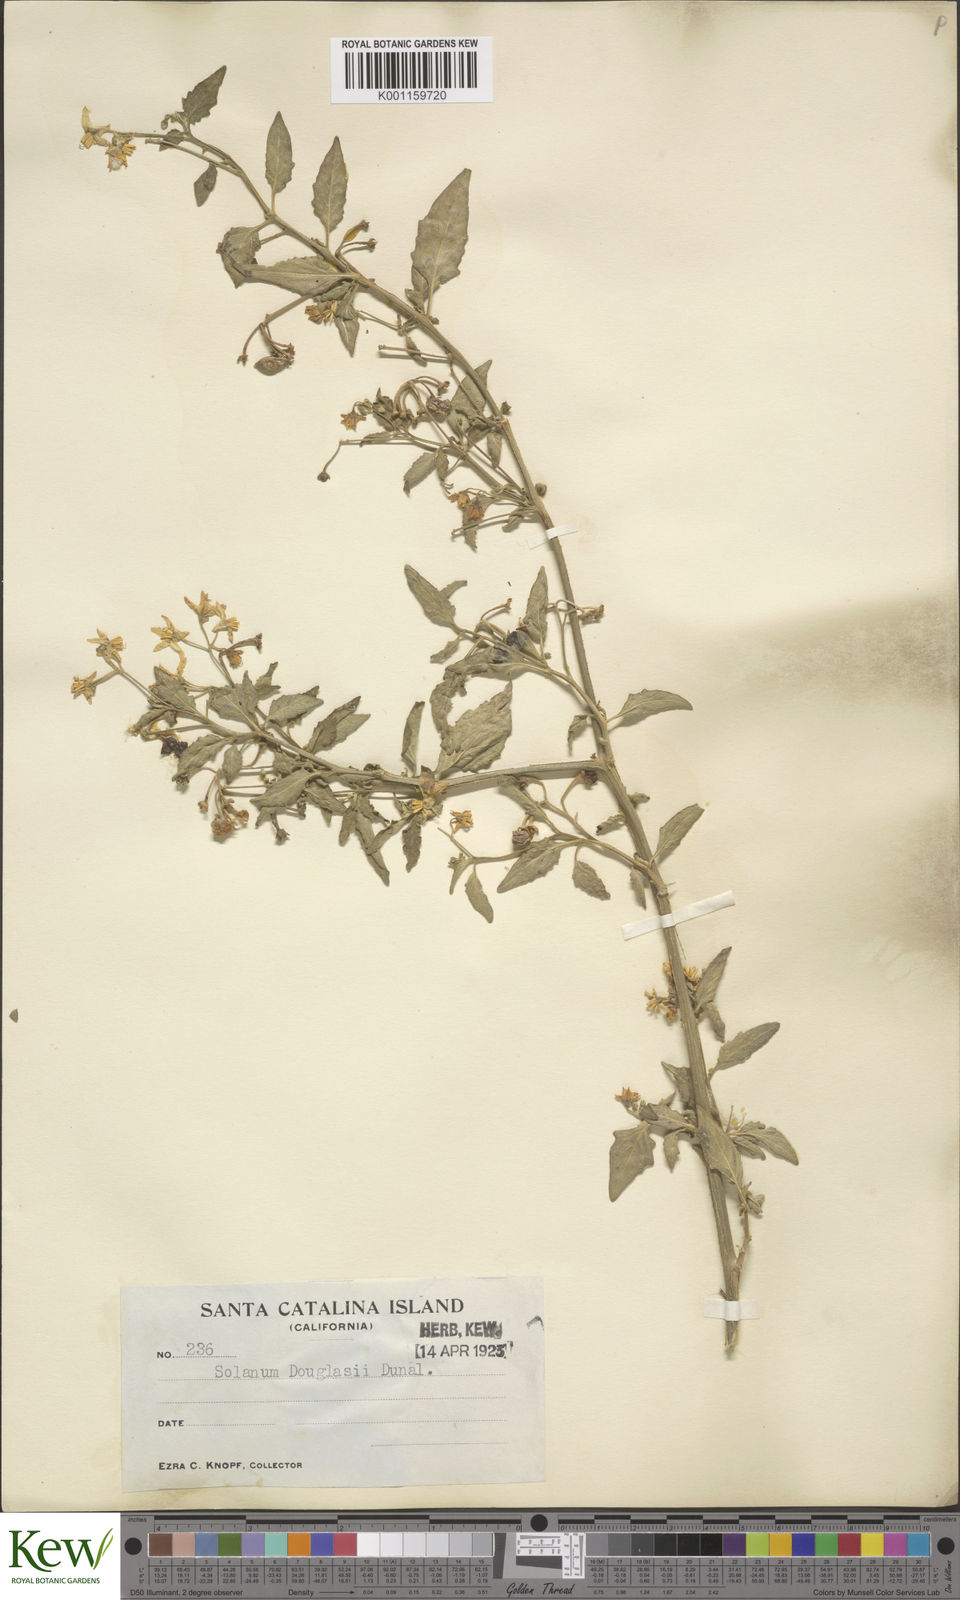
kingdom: Plantae
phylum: Tracheophyta
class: Magnoliopsida
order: Solanales
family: Solanaceae
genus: Solanum
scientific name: Solanum douglasii
